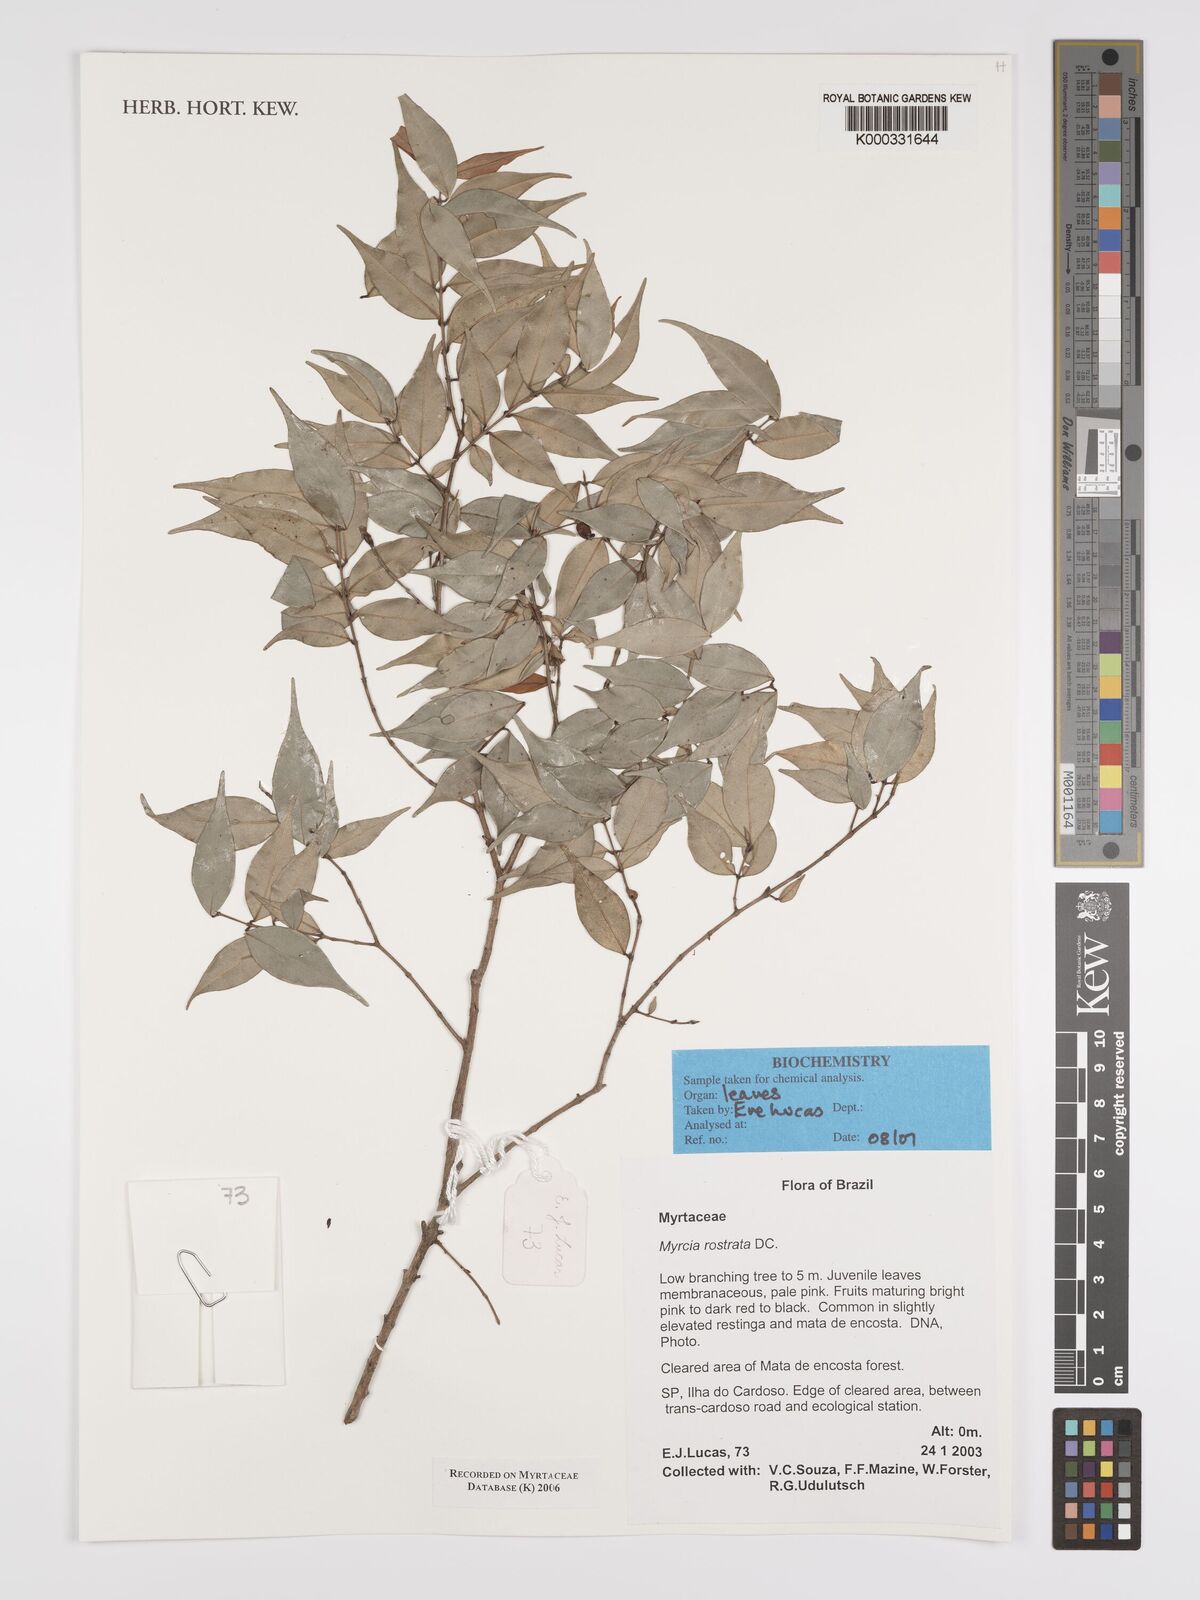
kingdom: Plantae
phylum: Tracheophyta
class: Magnoliopsida
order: Myrtales
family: Myrtaceae
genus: Myrcia
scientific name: Myrcia splendens
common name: Surinam cherry
